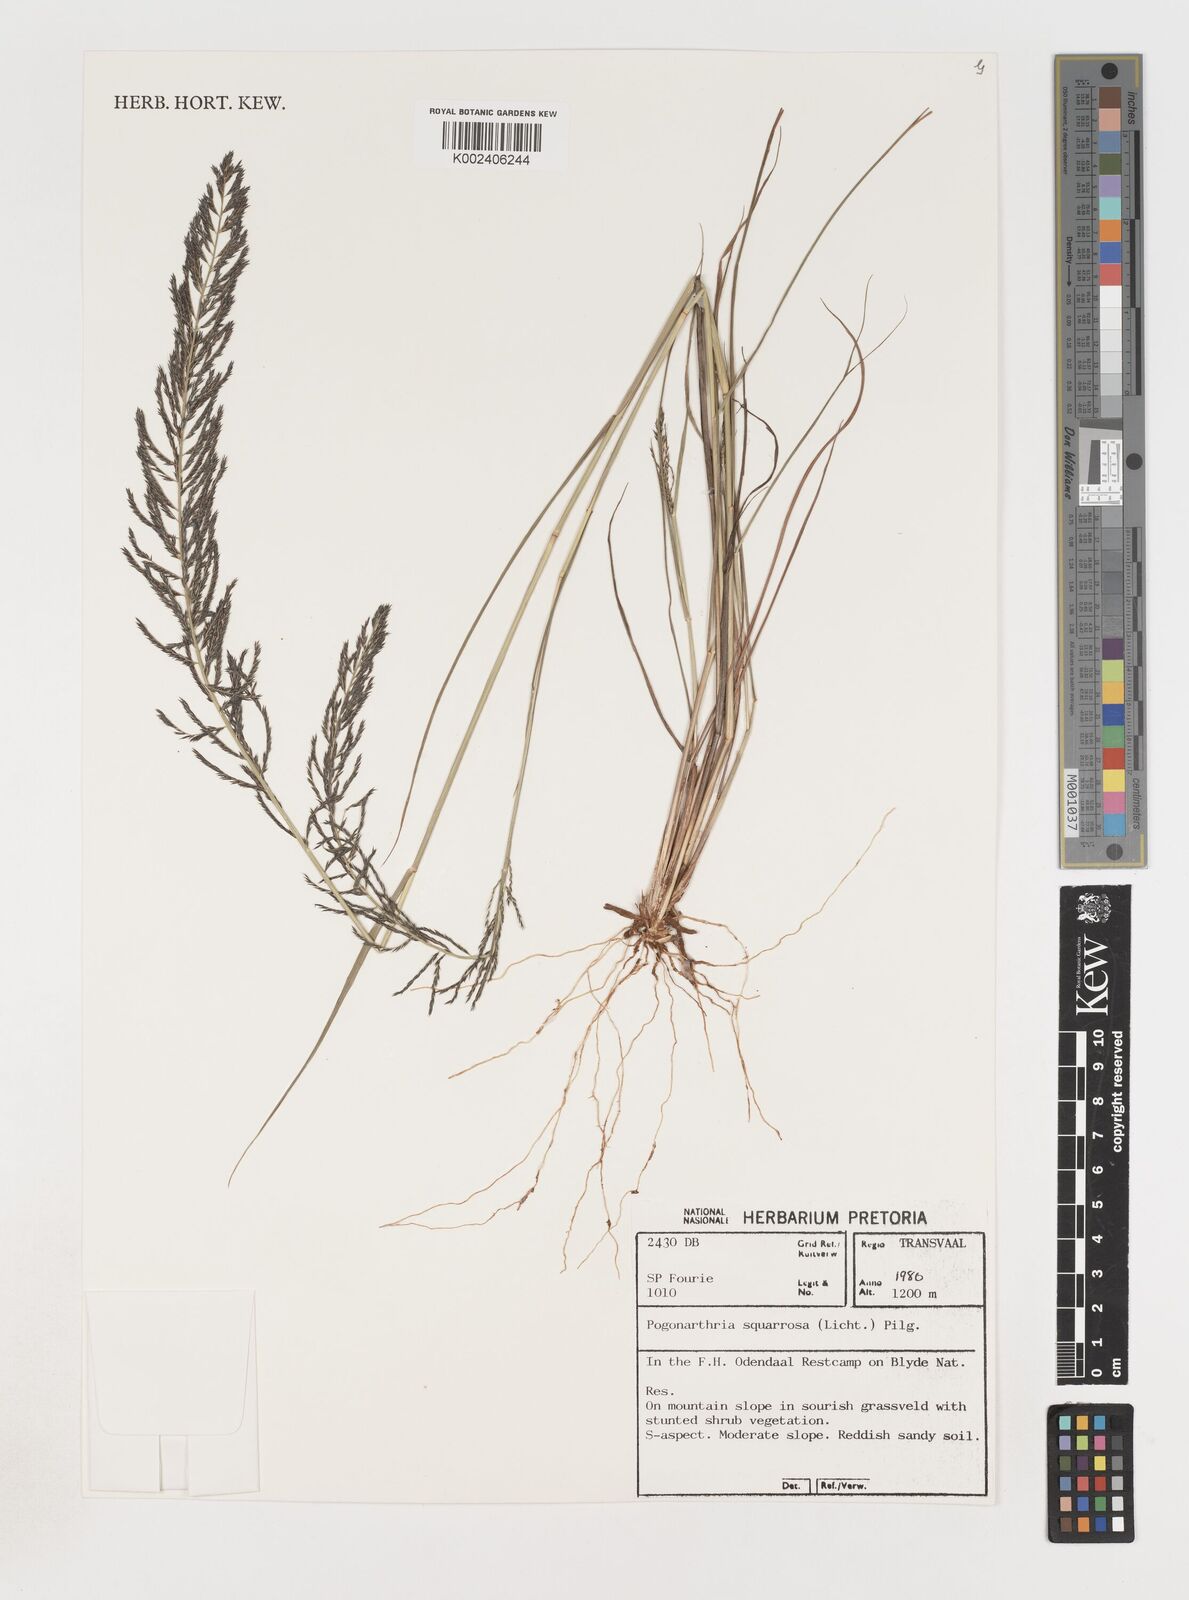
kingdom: Plantae
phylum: Tracheophyta
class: Liliopsida
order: Poales
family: Poaceae
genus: Pogonarthria
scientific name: Pogonarthria squarrosa
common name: Grass
